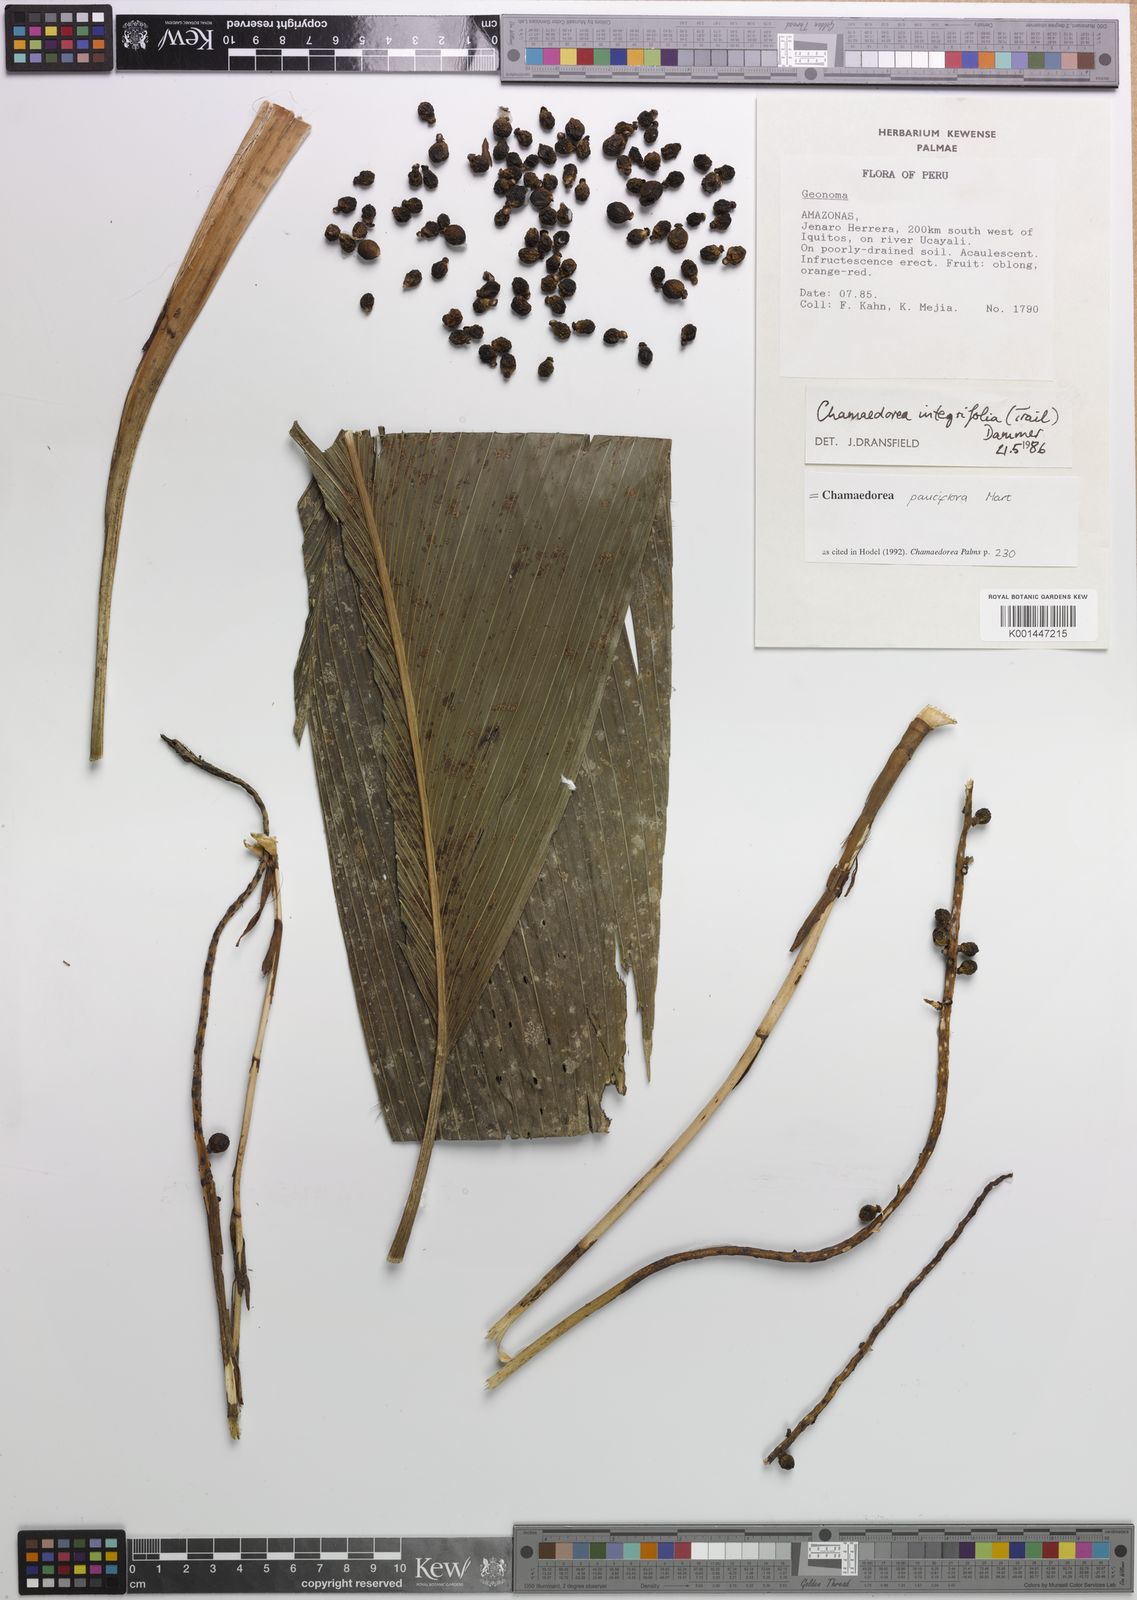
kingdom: Plantae
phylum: Tracheophyta
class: Liliopsida
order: Arecales
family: Arecaceae
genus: Chamaedorea
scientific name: Chamaedorea pauciflora
